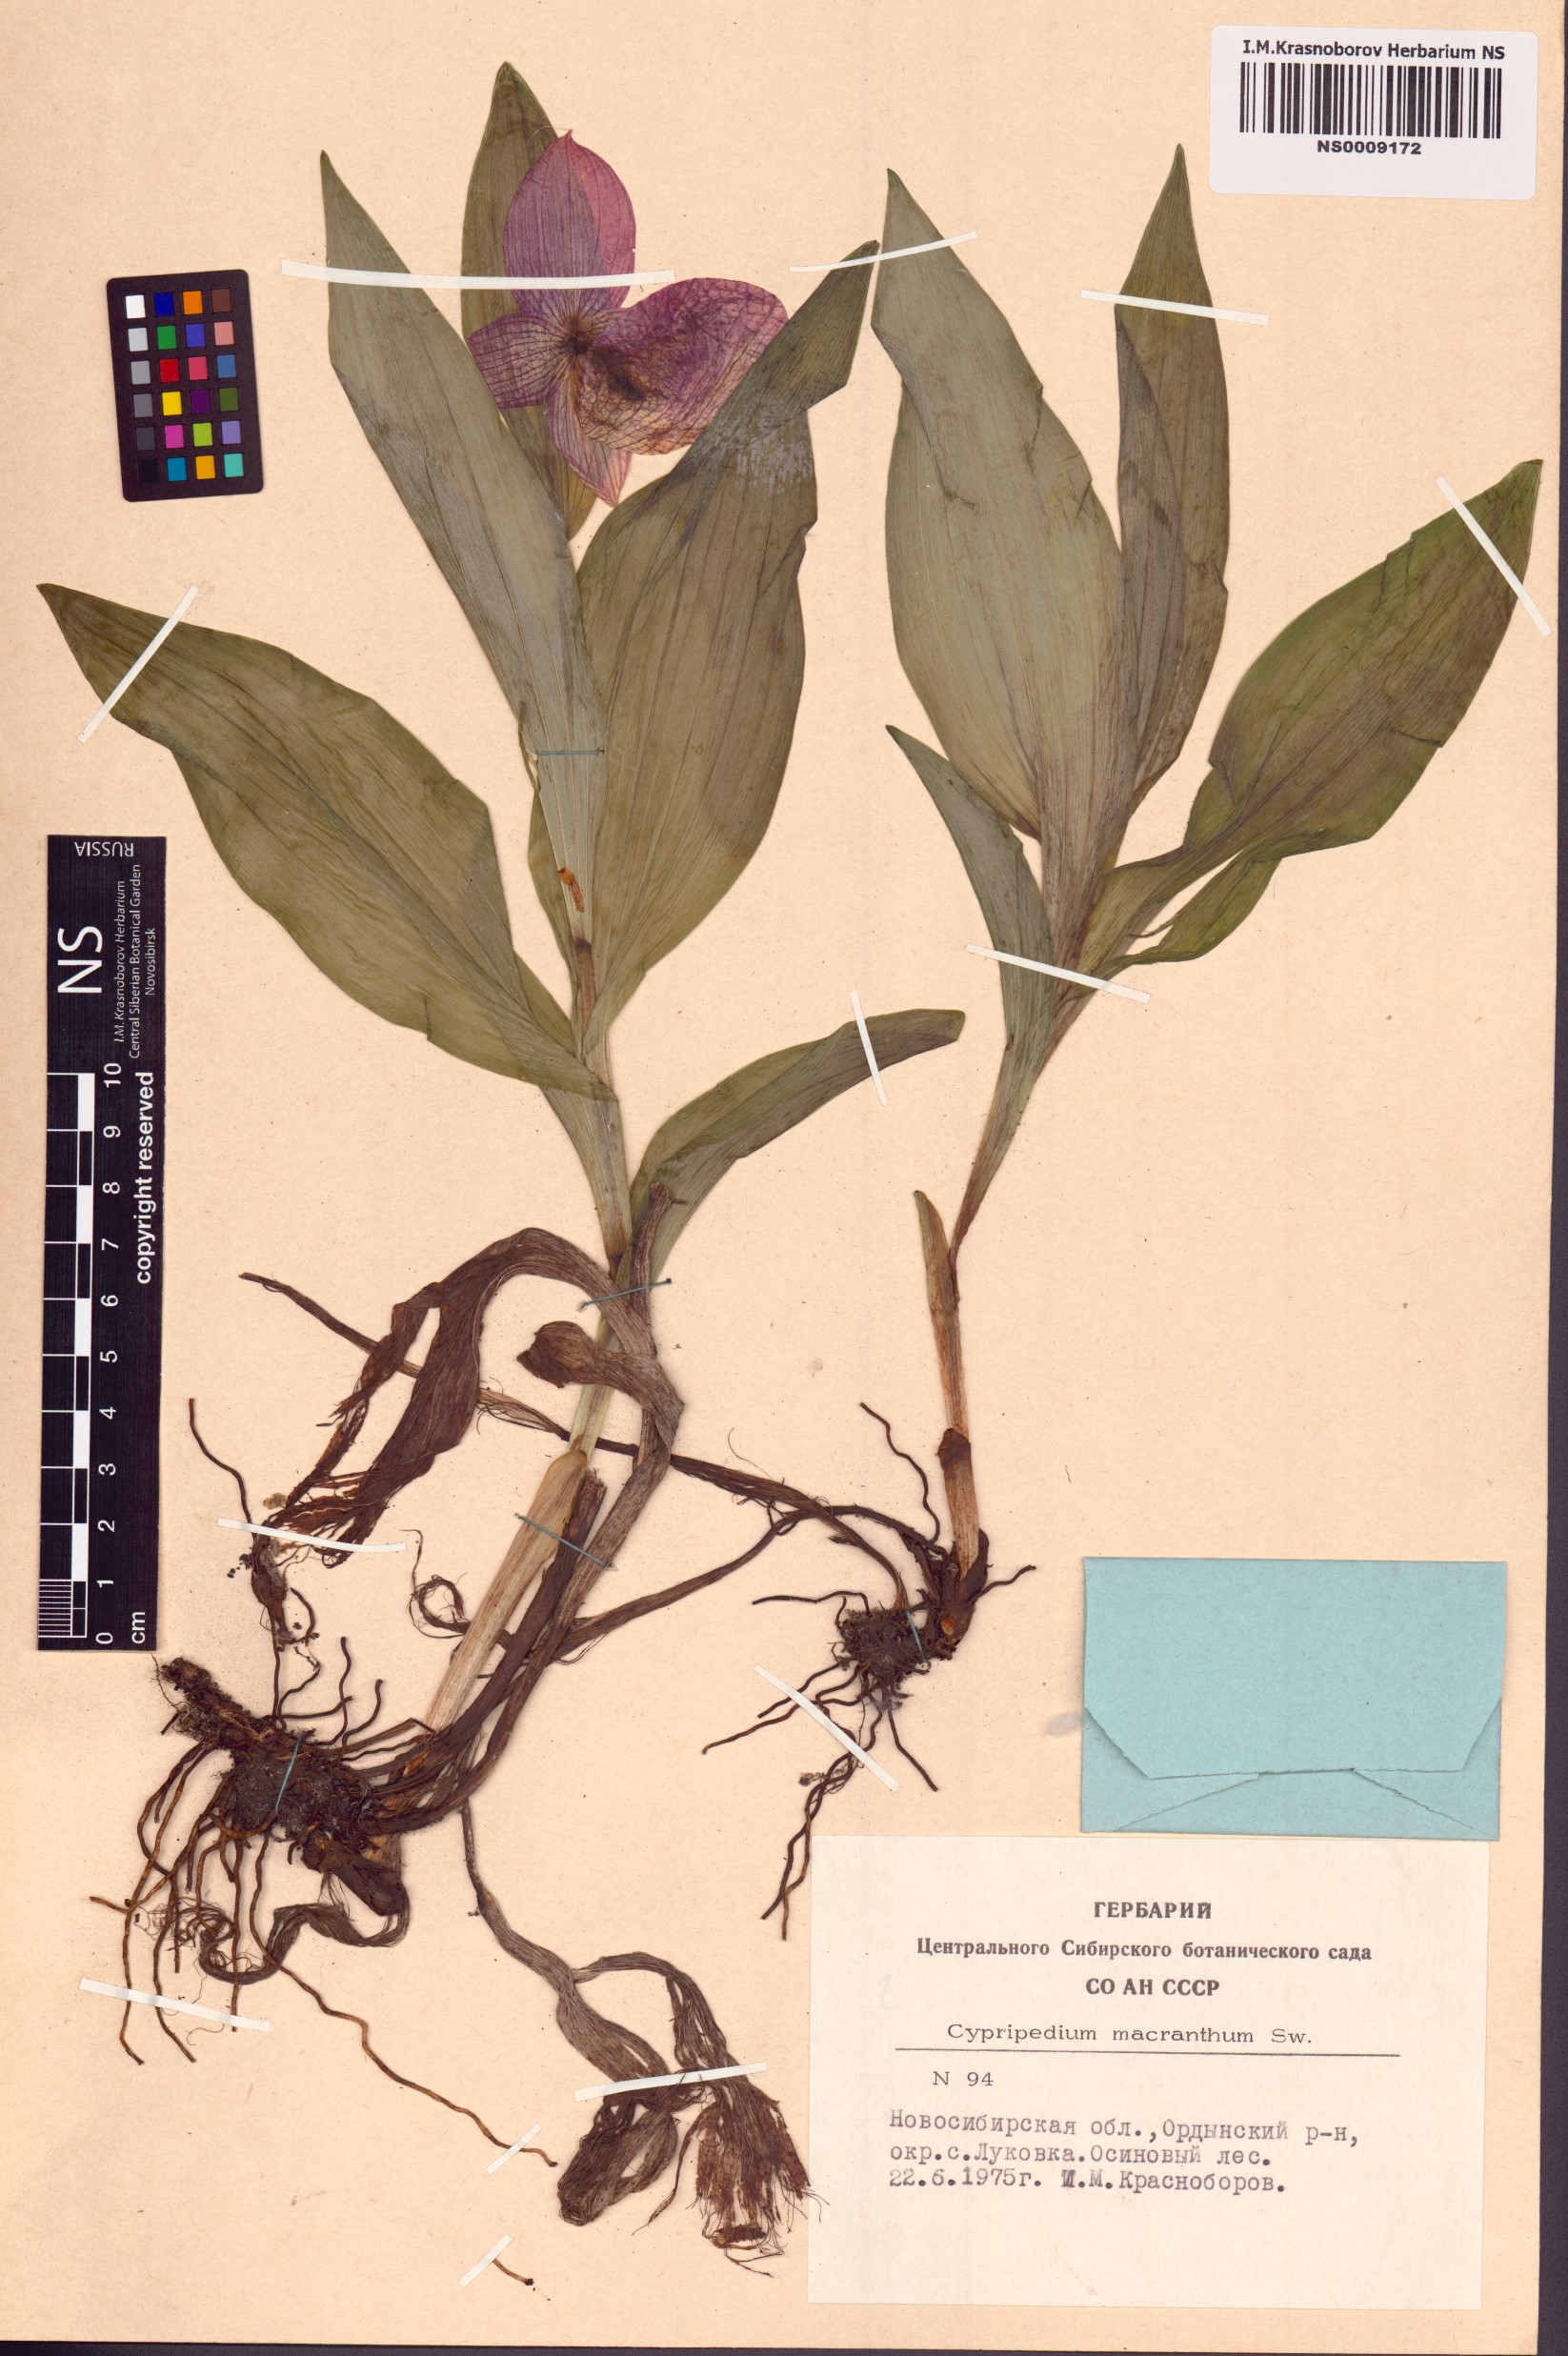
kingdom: Plantae
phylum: Tracheophyta
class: Liliopsida
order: Asparagales
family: Orchidaceae
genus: Cypripedium
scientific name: Cypripedium macranthos
